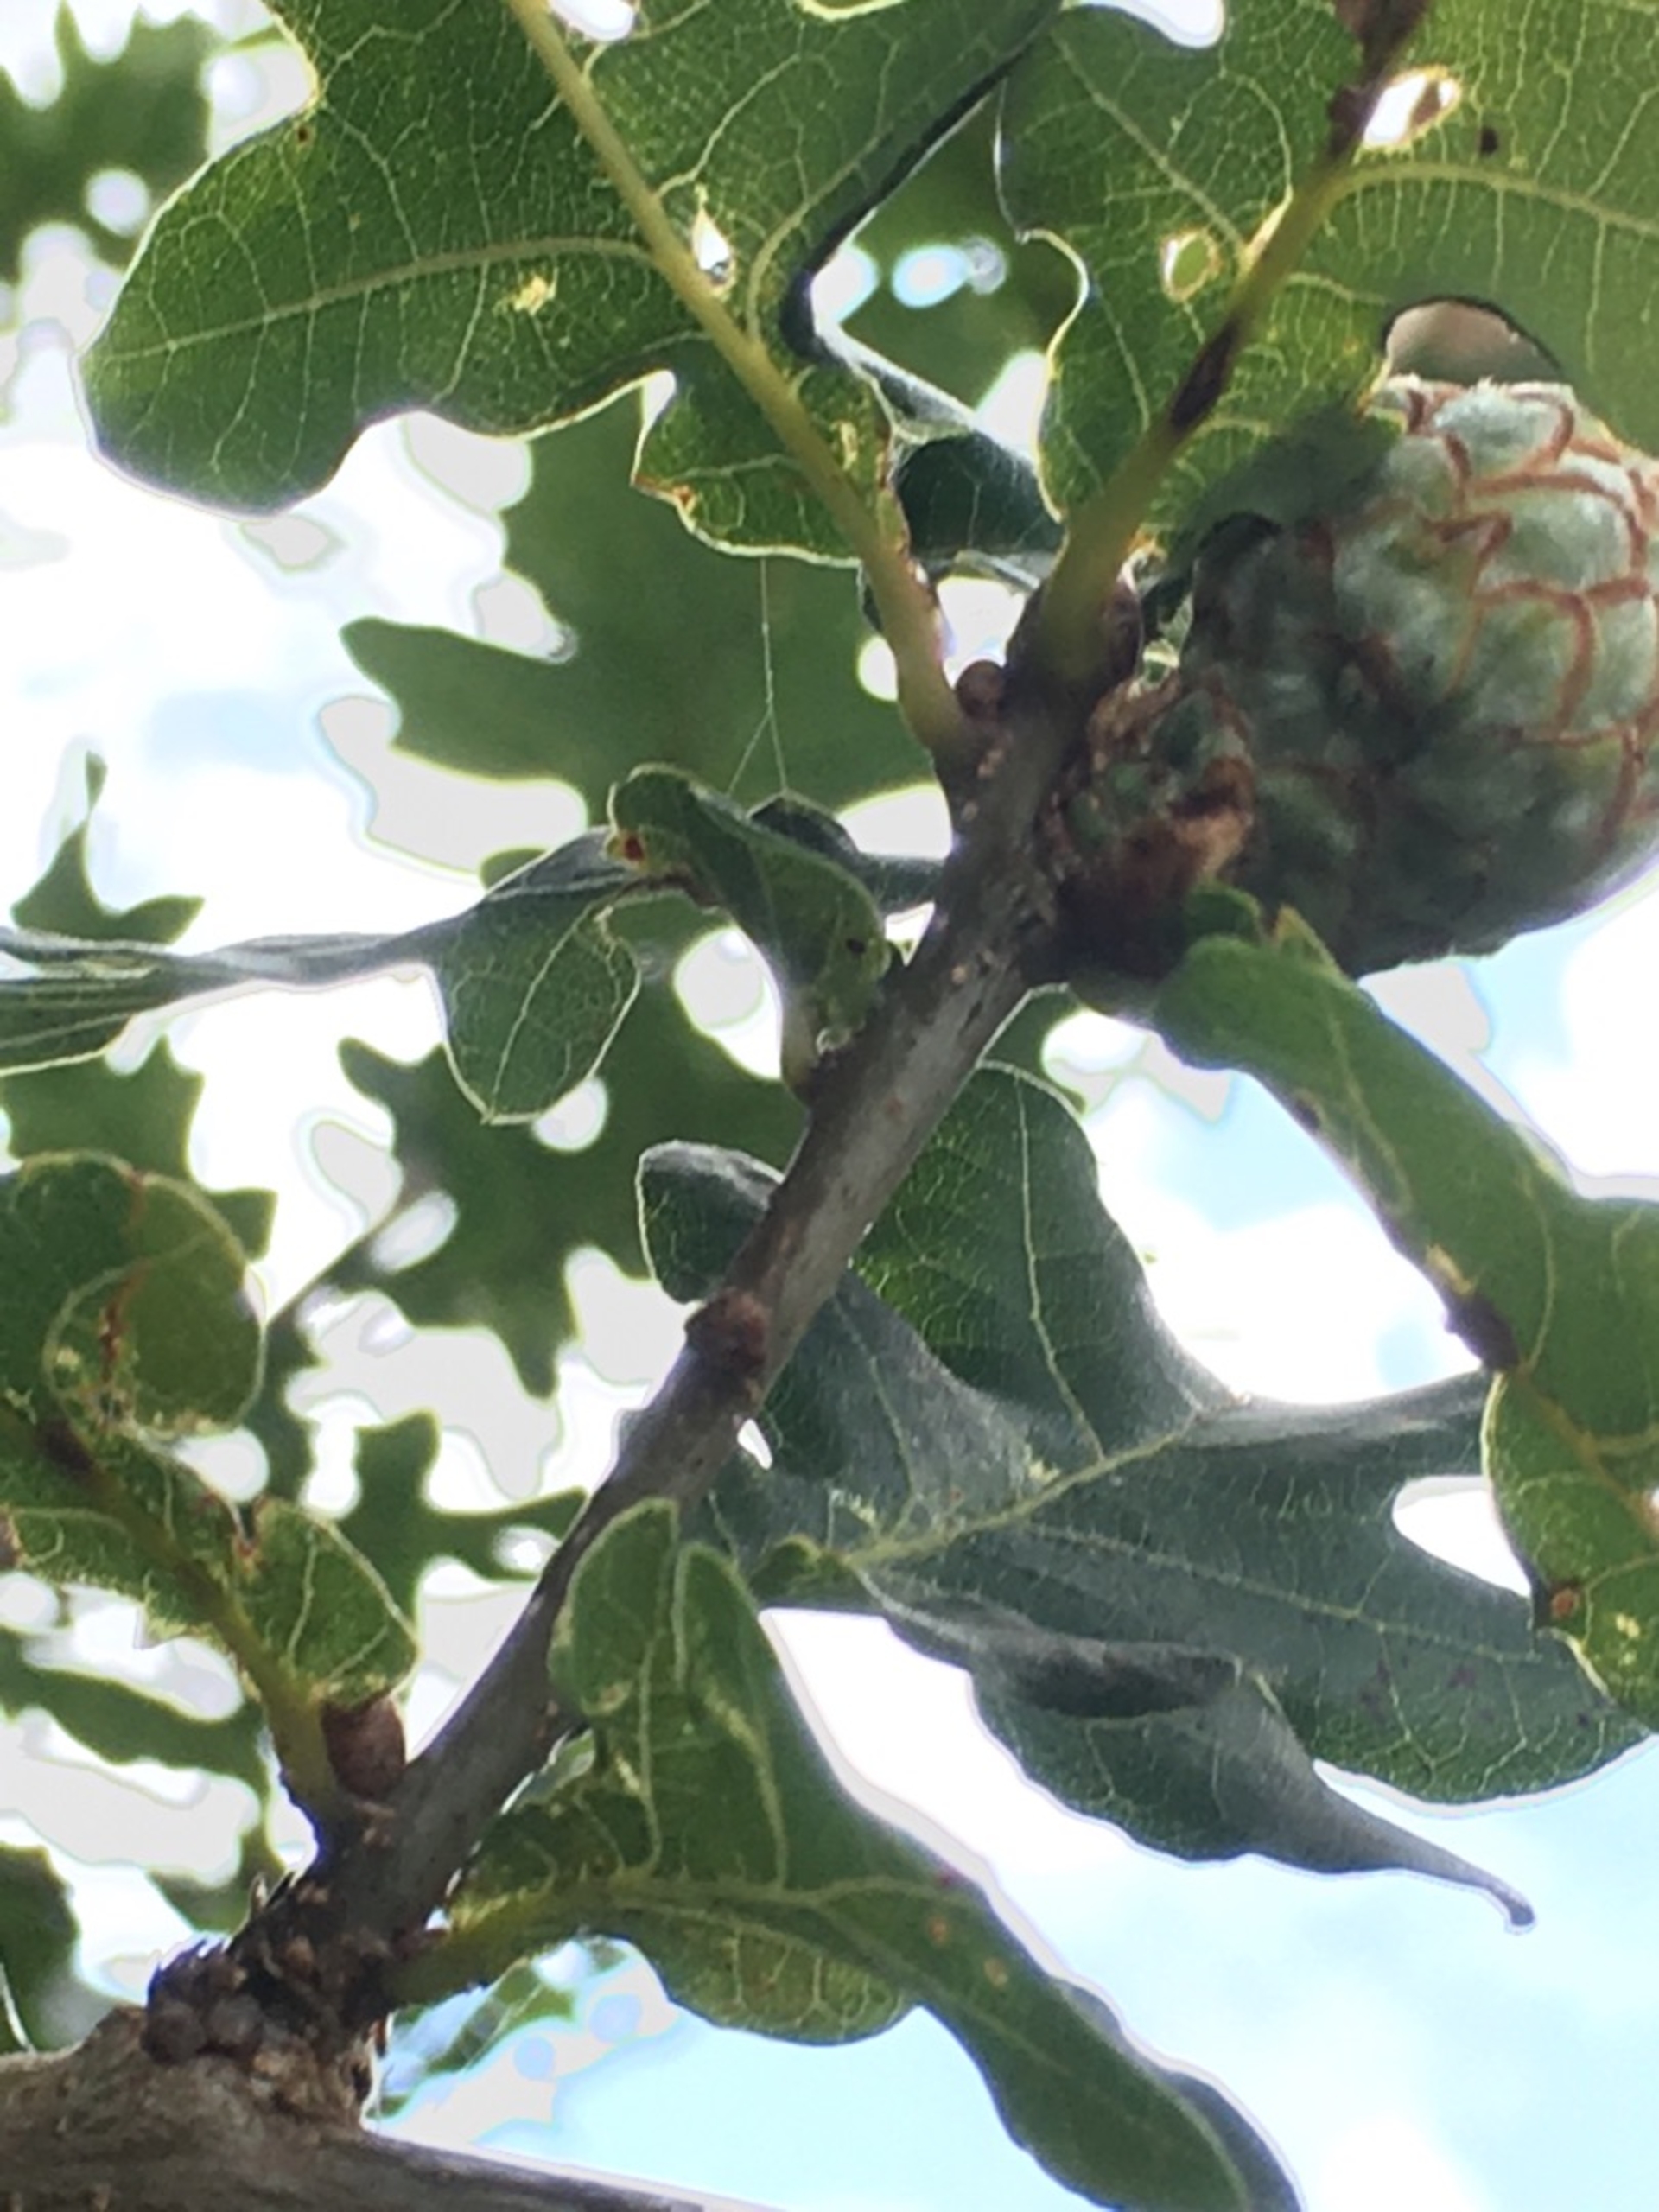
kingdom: Animalia
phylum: Arthropoda
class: Insecta
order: Hymenoptera
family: Cynipidae
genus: Andricus
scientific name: Andricus foecundatrix
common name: Artiskokgalhveps
